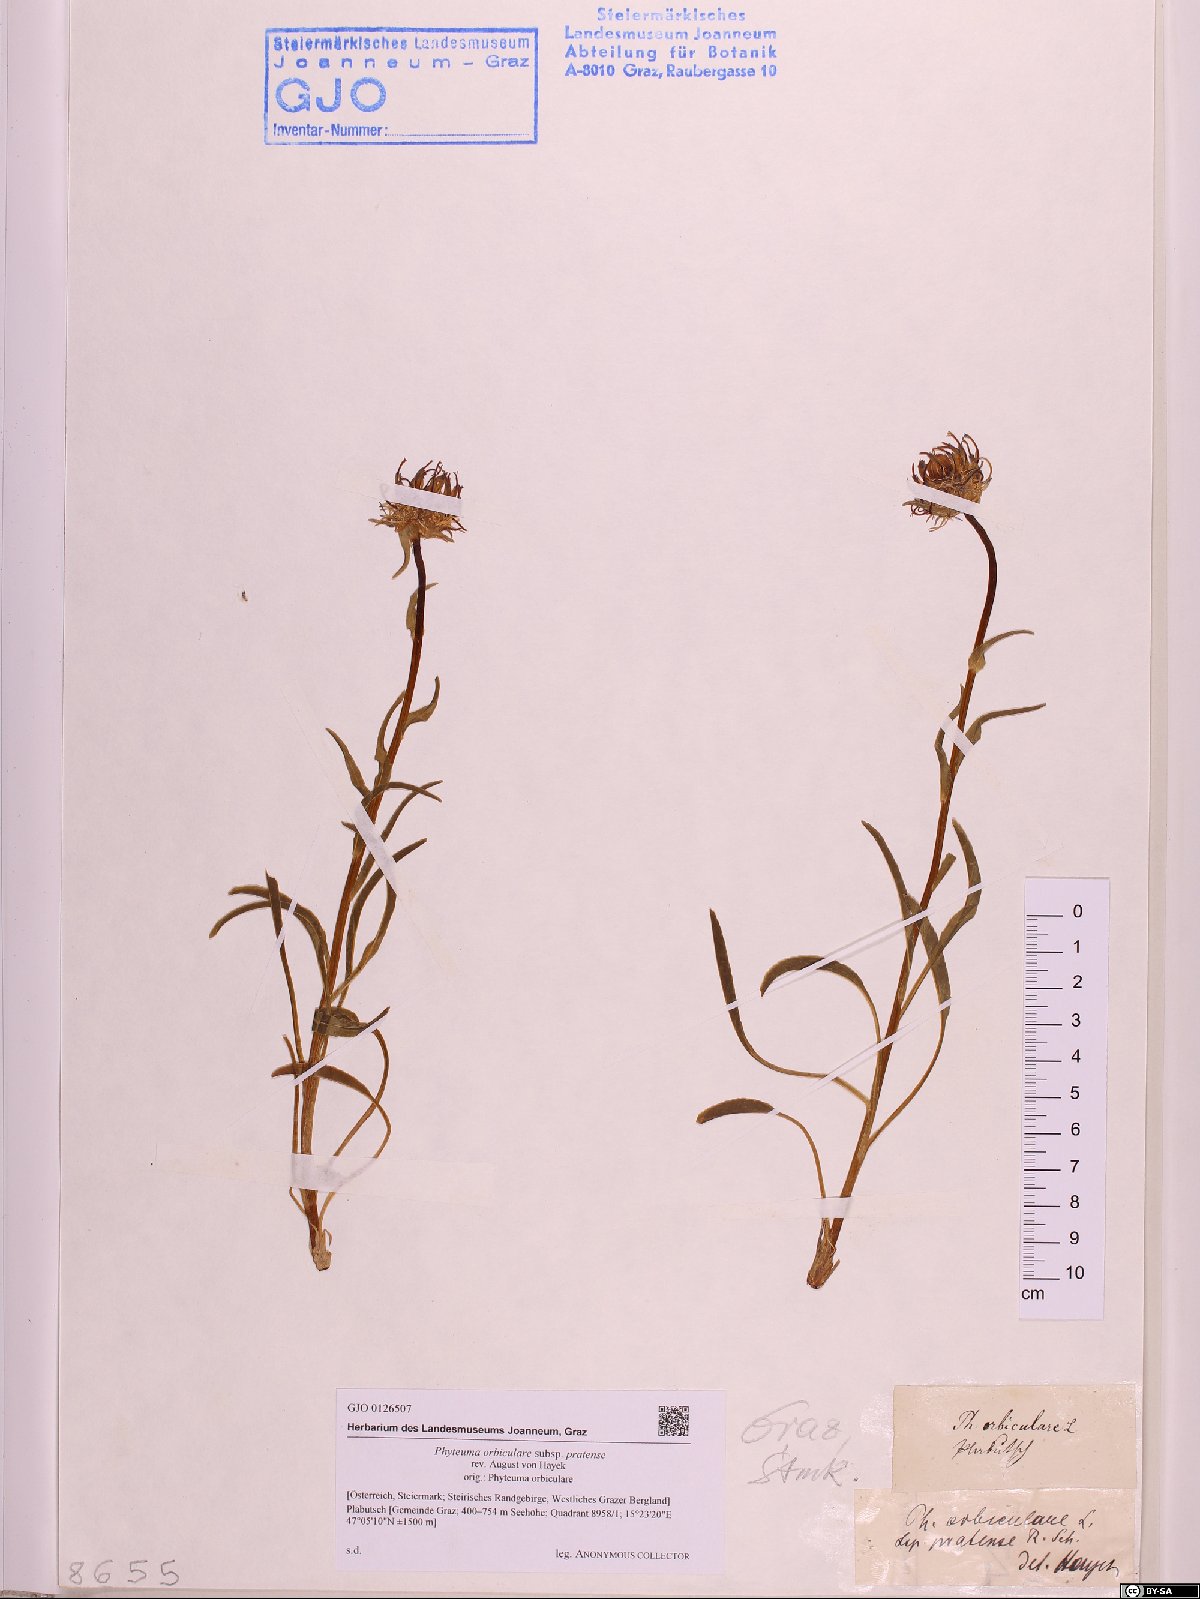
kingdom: Plantae
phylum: Tracheophyta
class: Magnoliopsida
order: Asterales
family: Campanulaceae
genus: Phyteuma
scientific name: Phyteuma orbiculare
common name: Round-headed rampion
